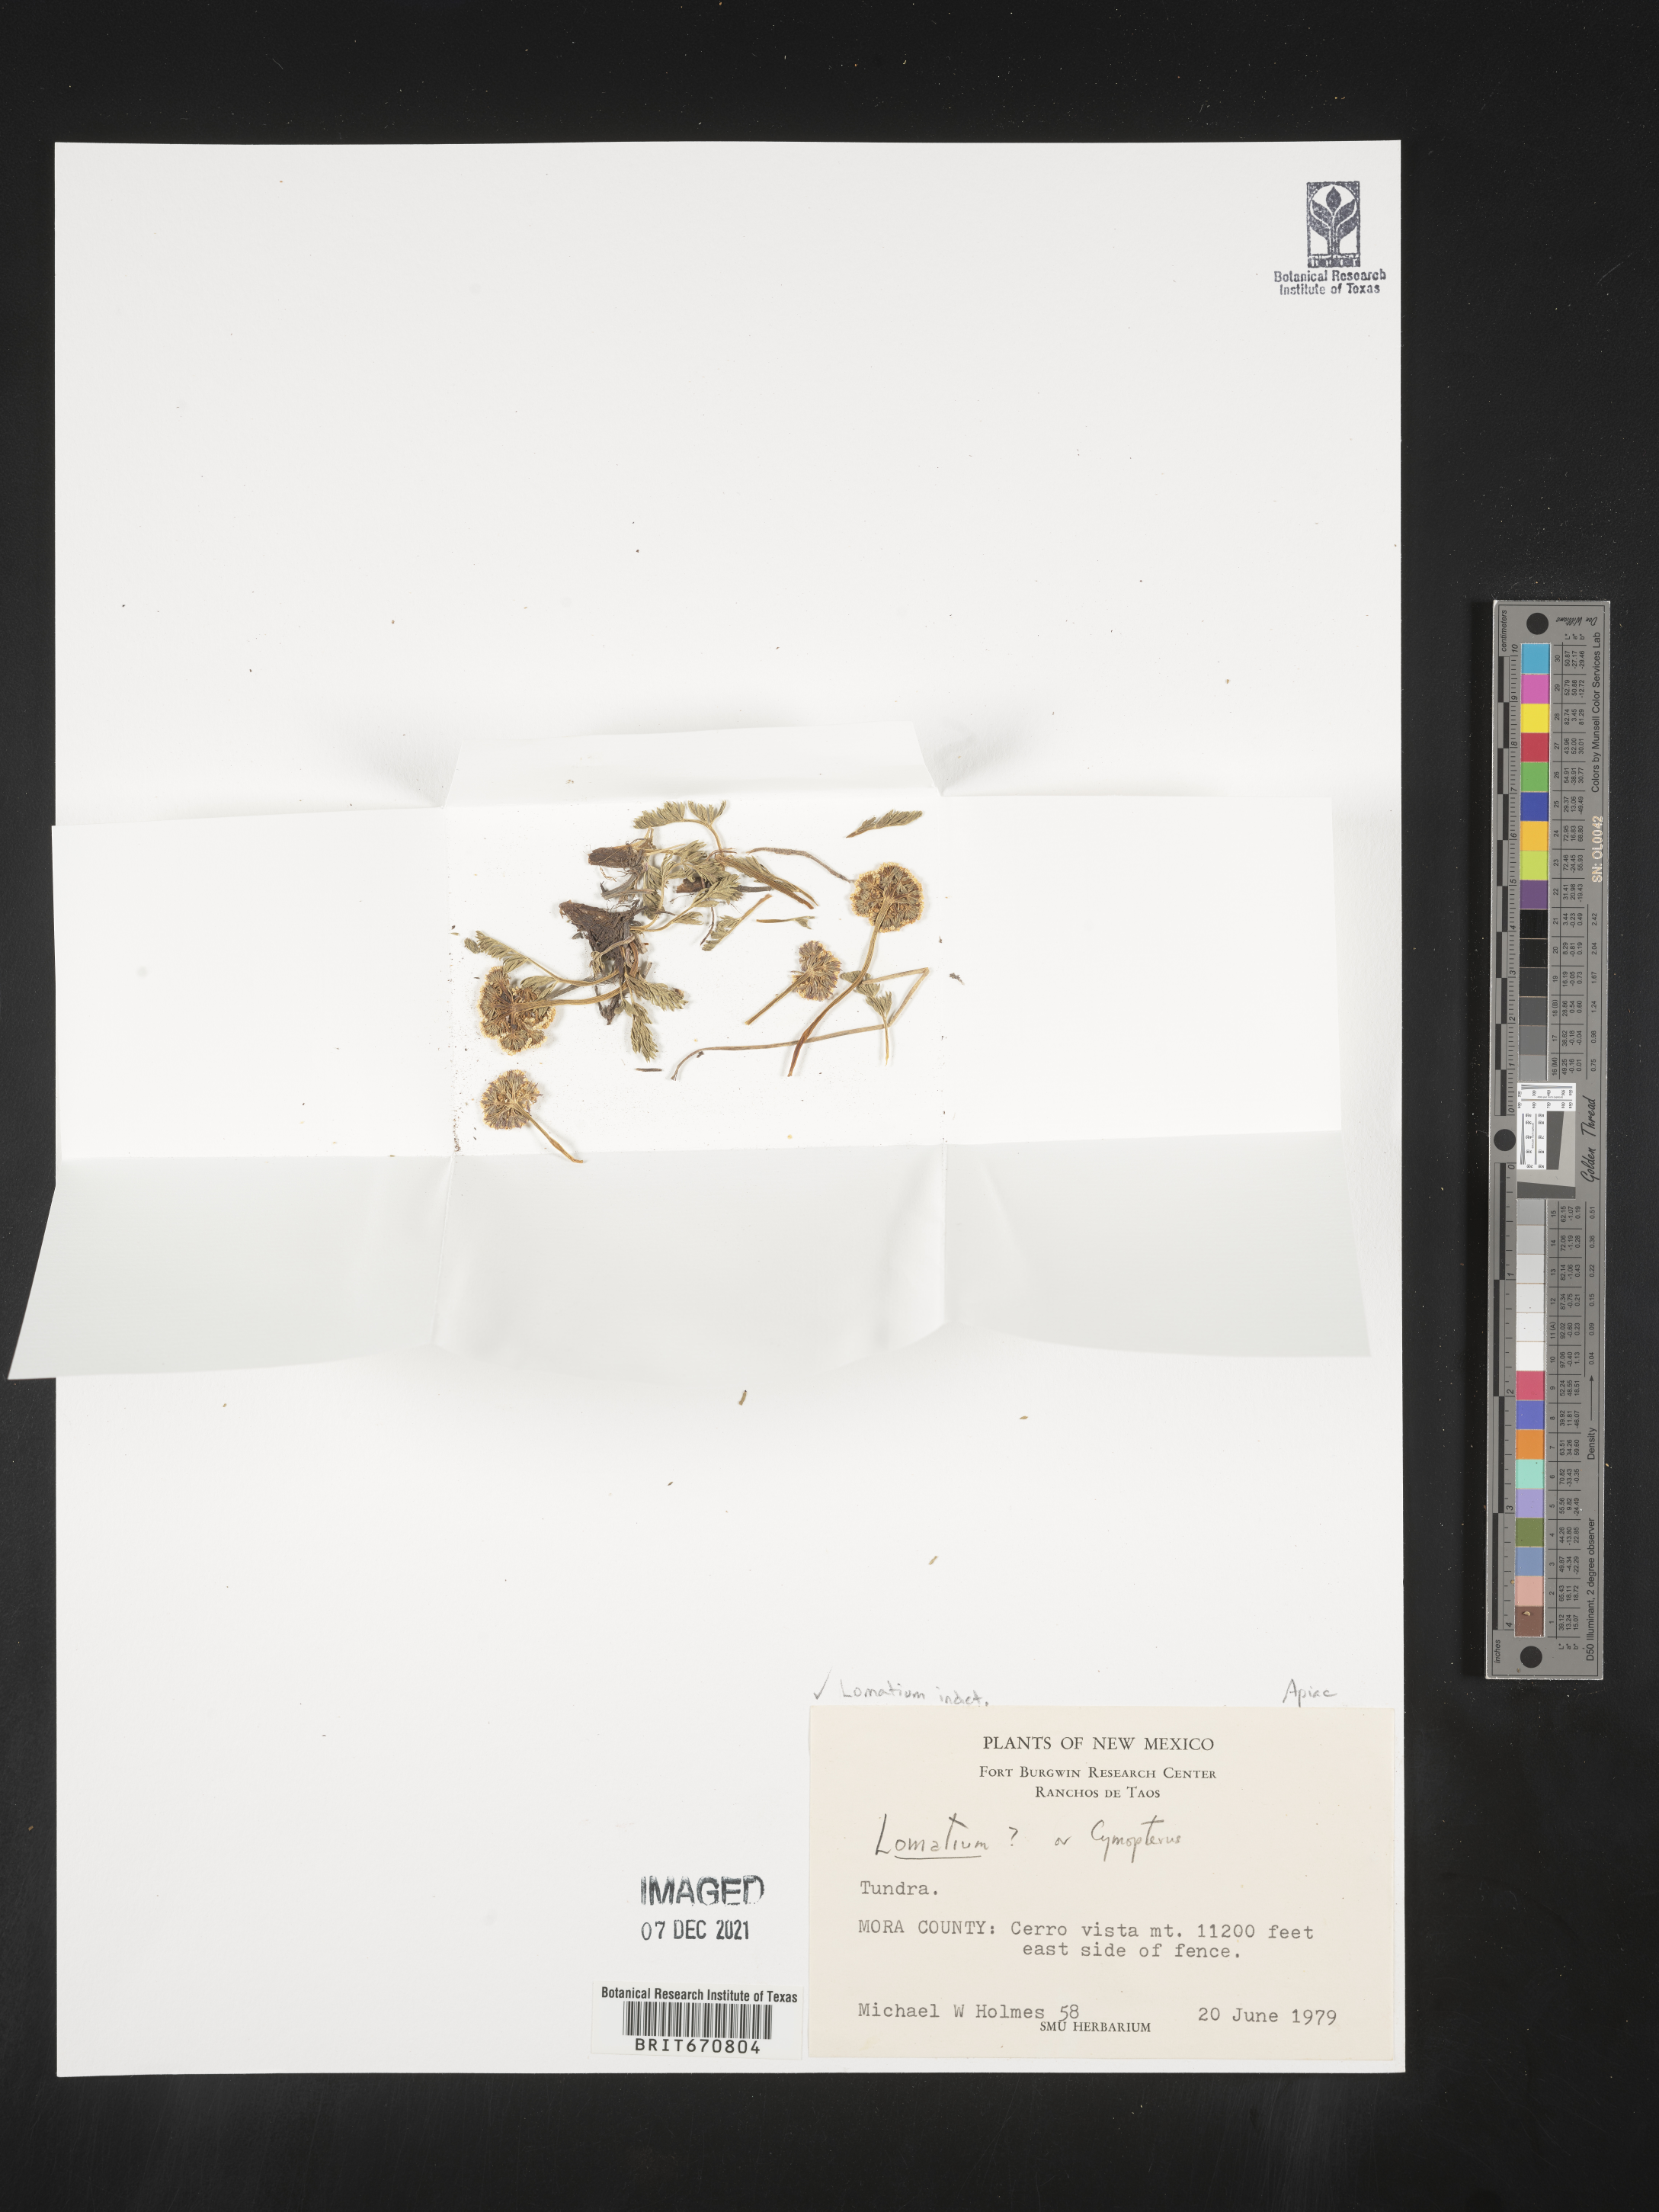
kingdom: Plantae
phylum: Tracheophyta
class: Magnoliopsida
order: Apiales
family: Apiaceae
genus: Lomatium
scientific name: Lomatium
